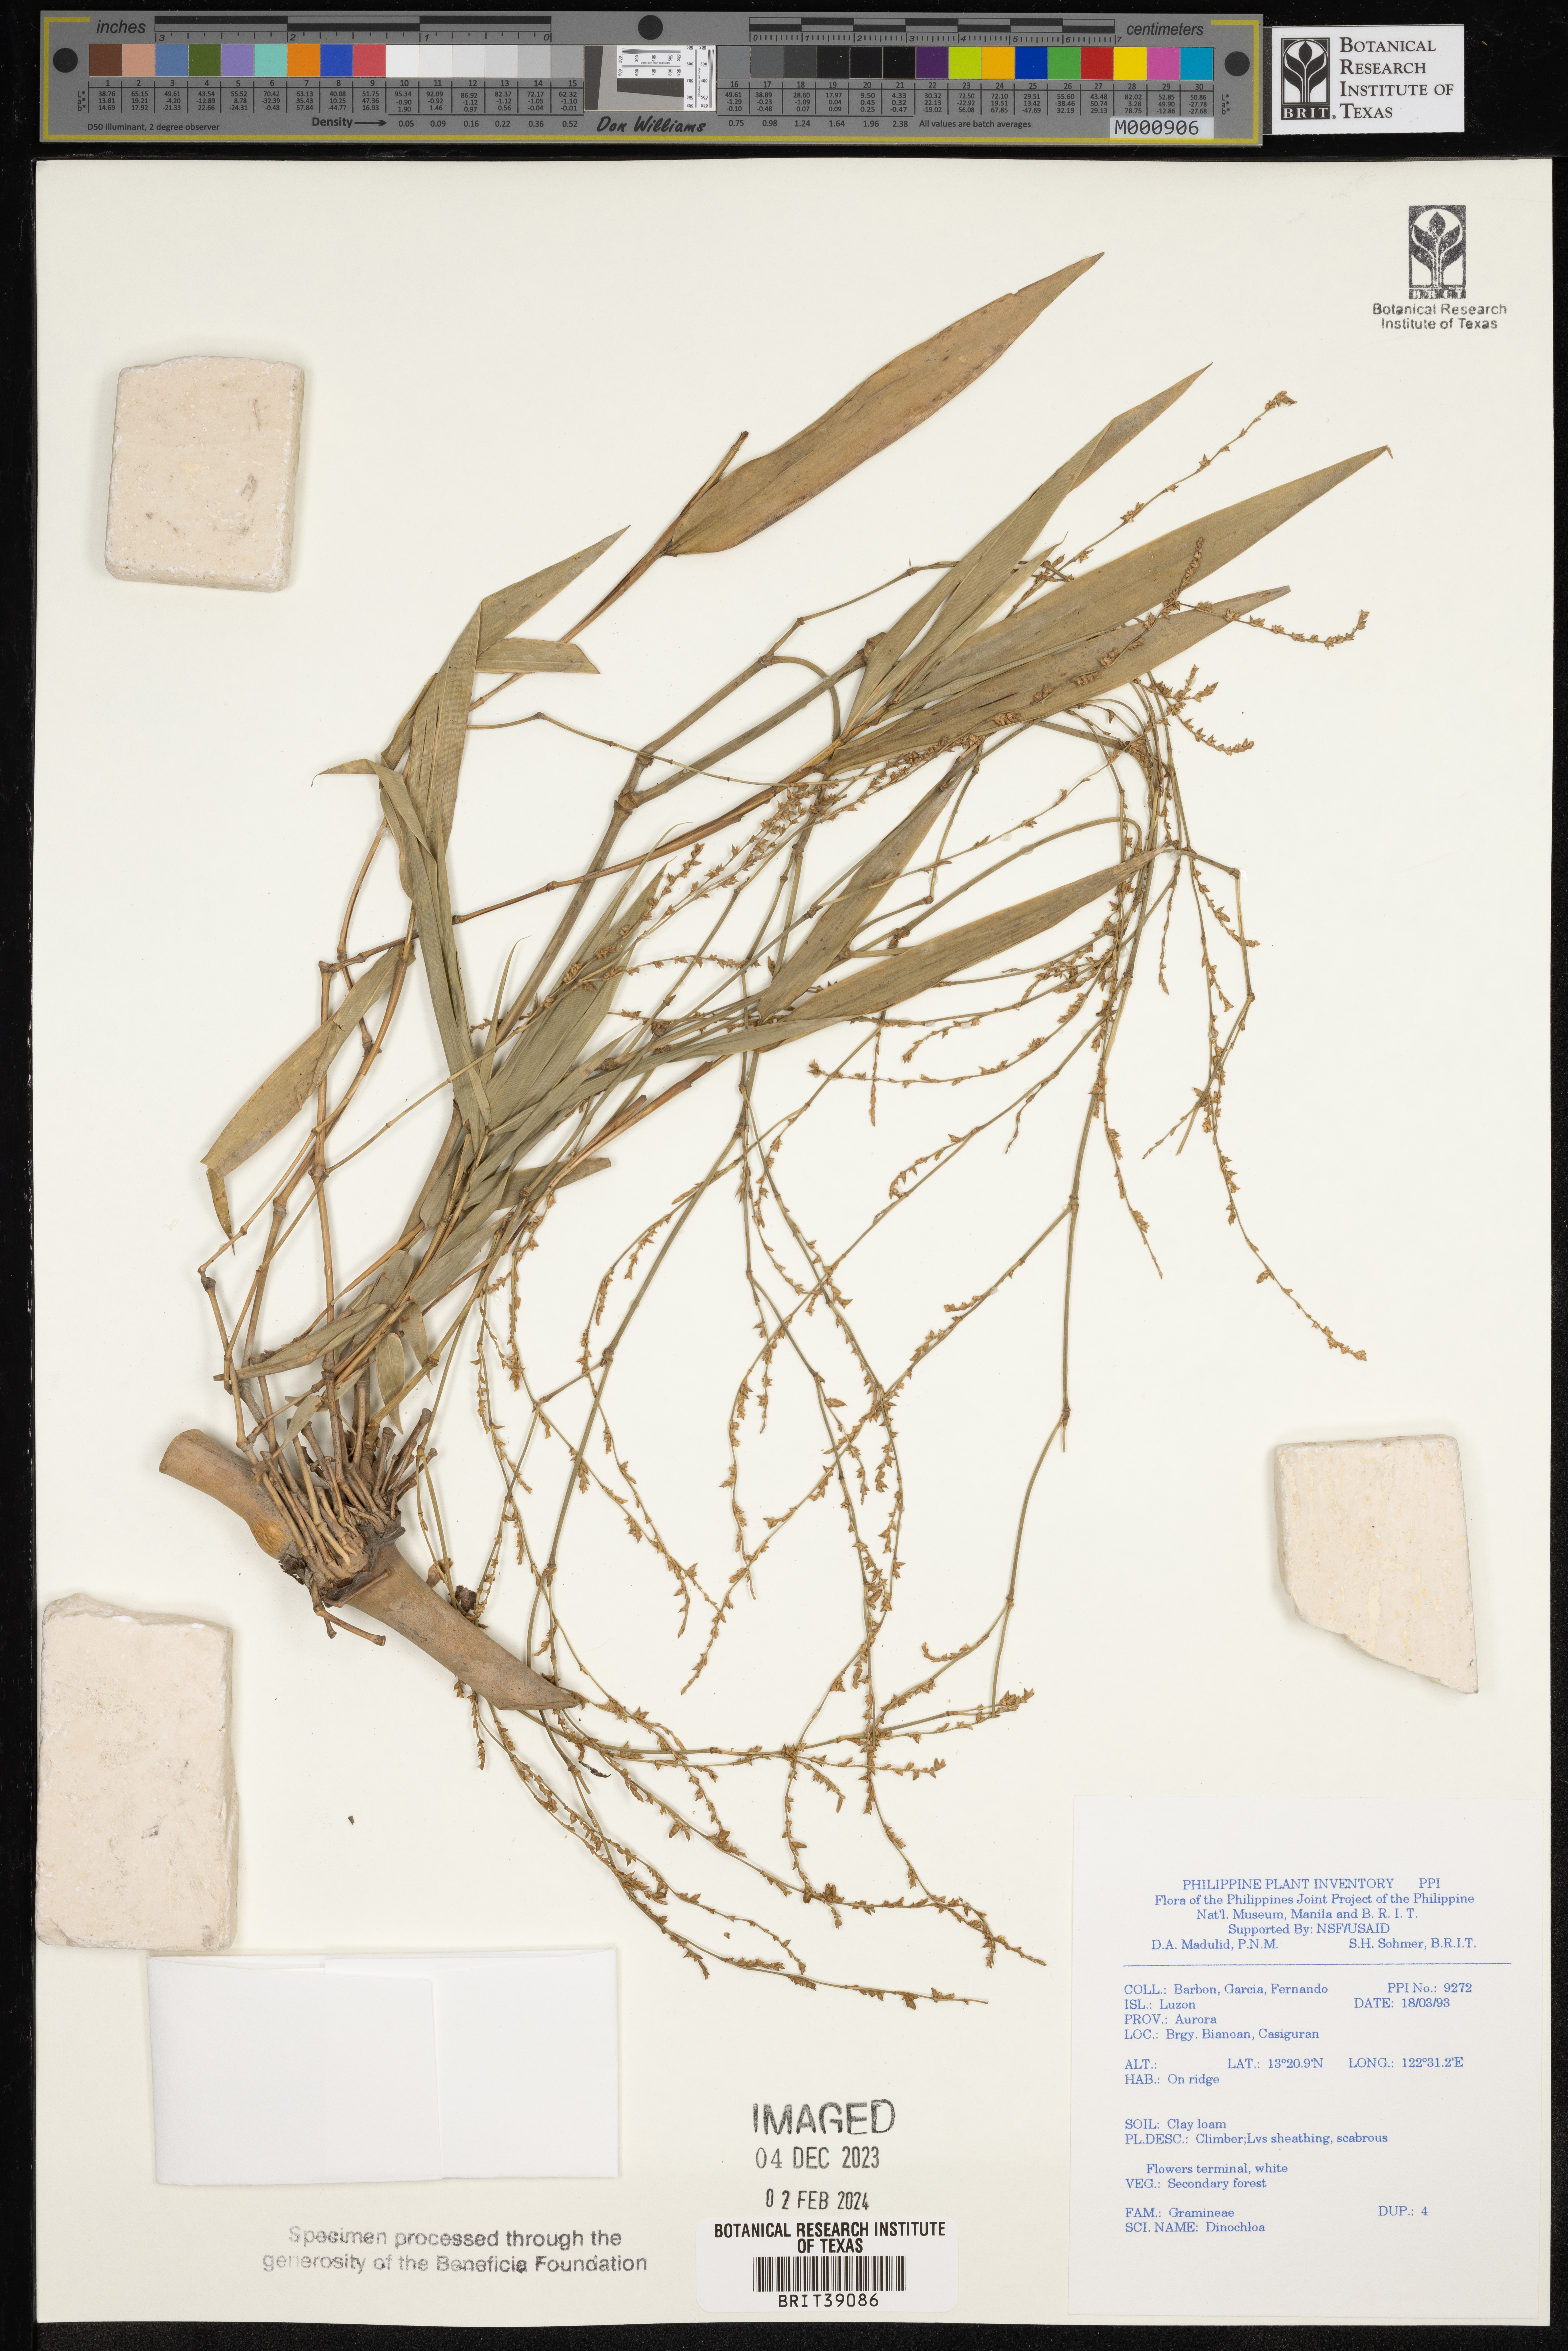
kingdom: Plantae
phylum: Tracheophyta
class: Liliopsida
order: Poales
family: Poaceae
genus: Dinochloa
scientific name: Dinochloa
